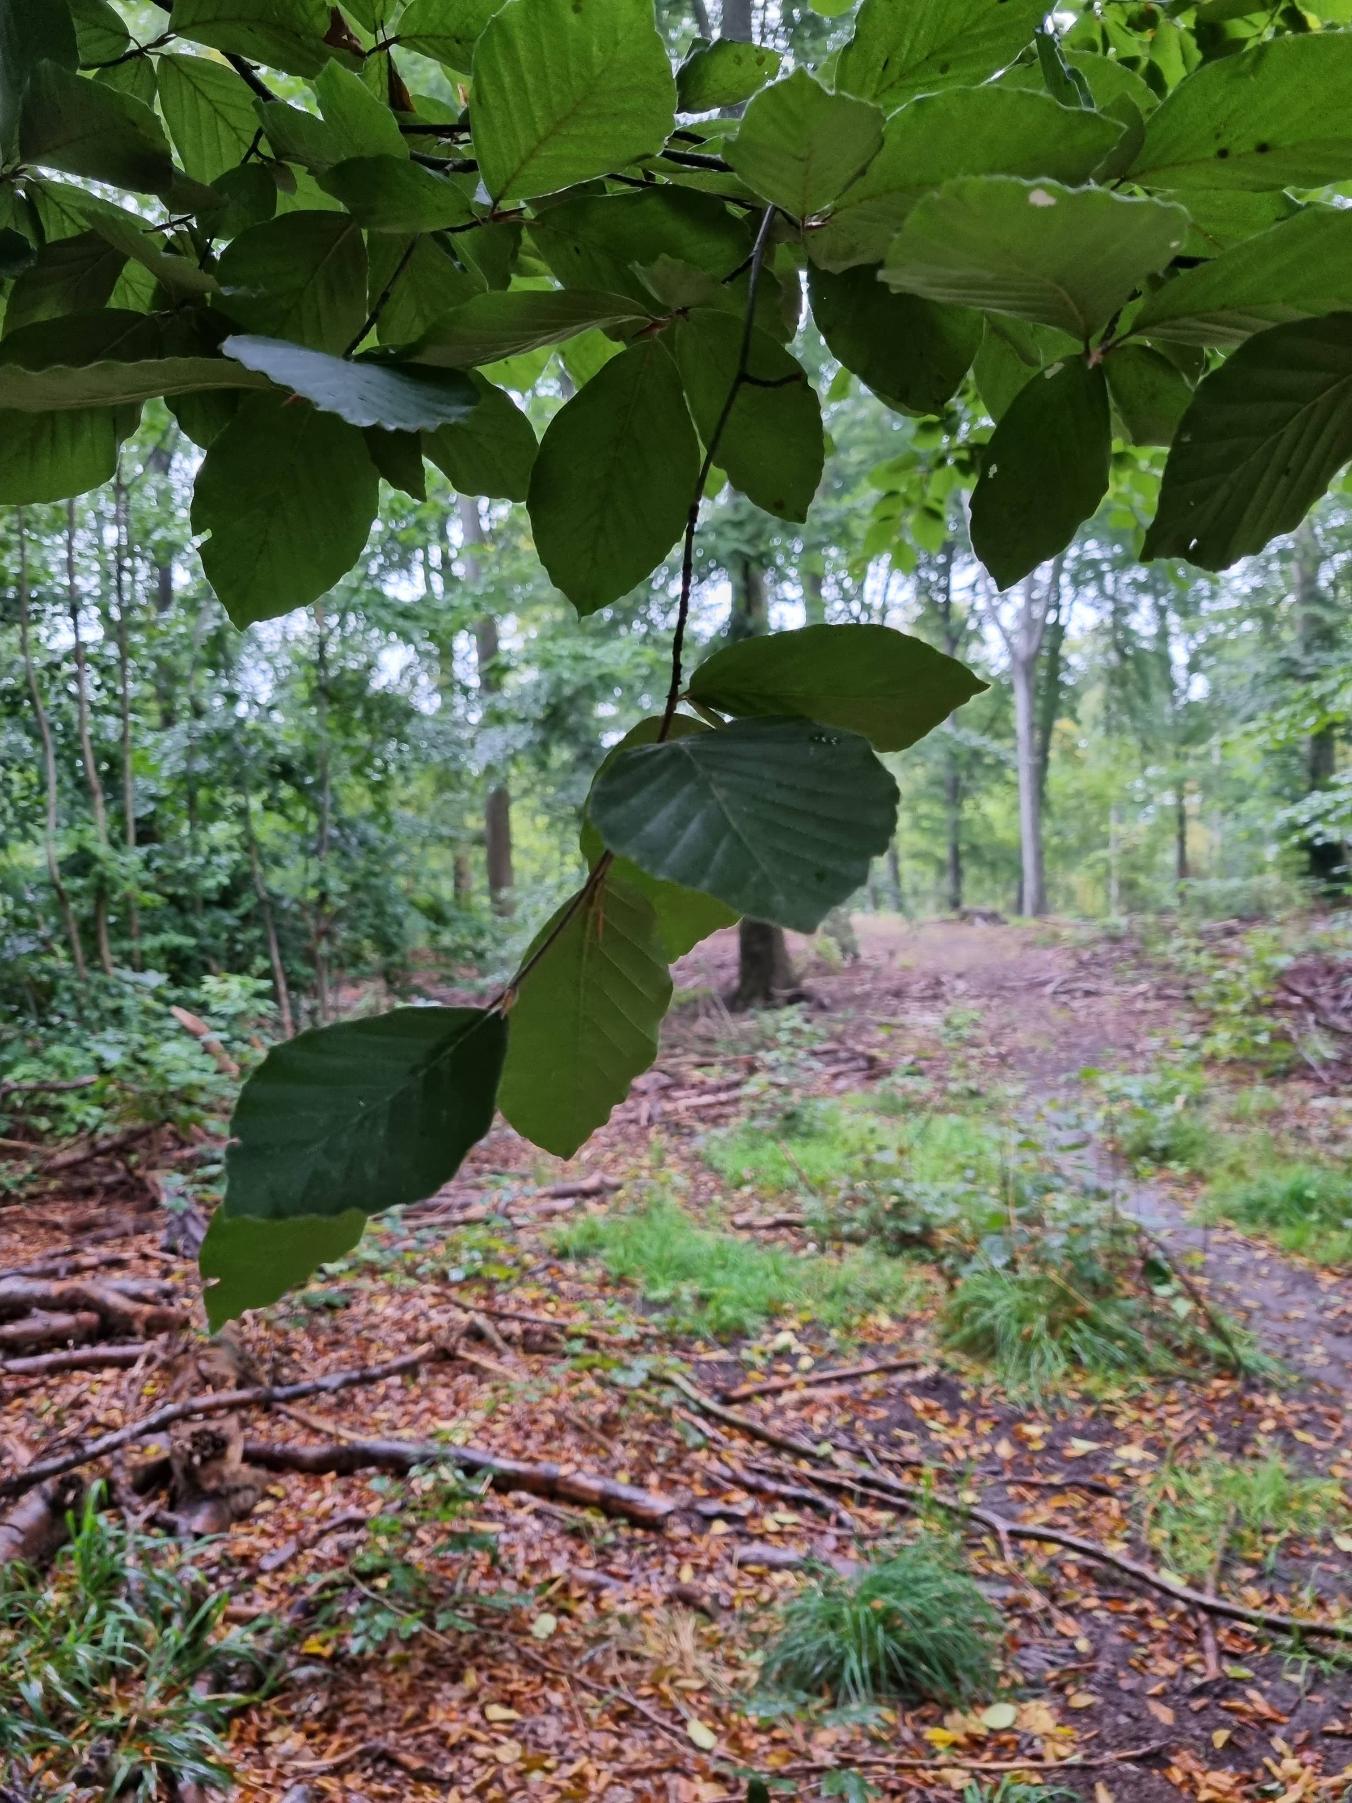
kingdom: Plantae
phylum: Tracheophyta
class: Magnoliopsida
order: Fagales
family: Fagaceae
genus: Fagus
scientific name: Fagus sylvatica
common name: Bøg
